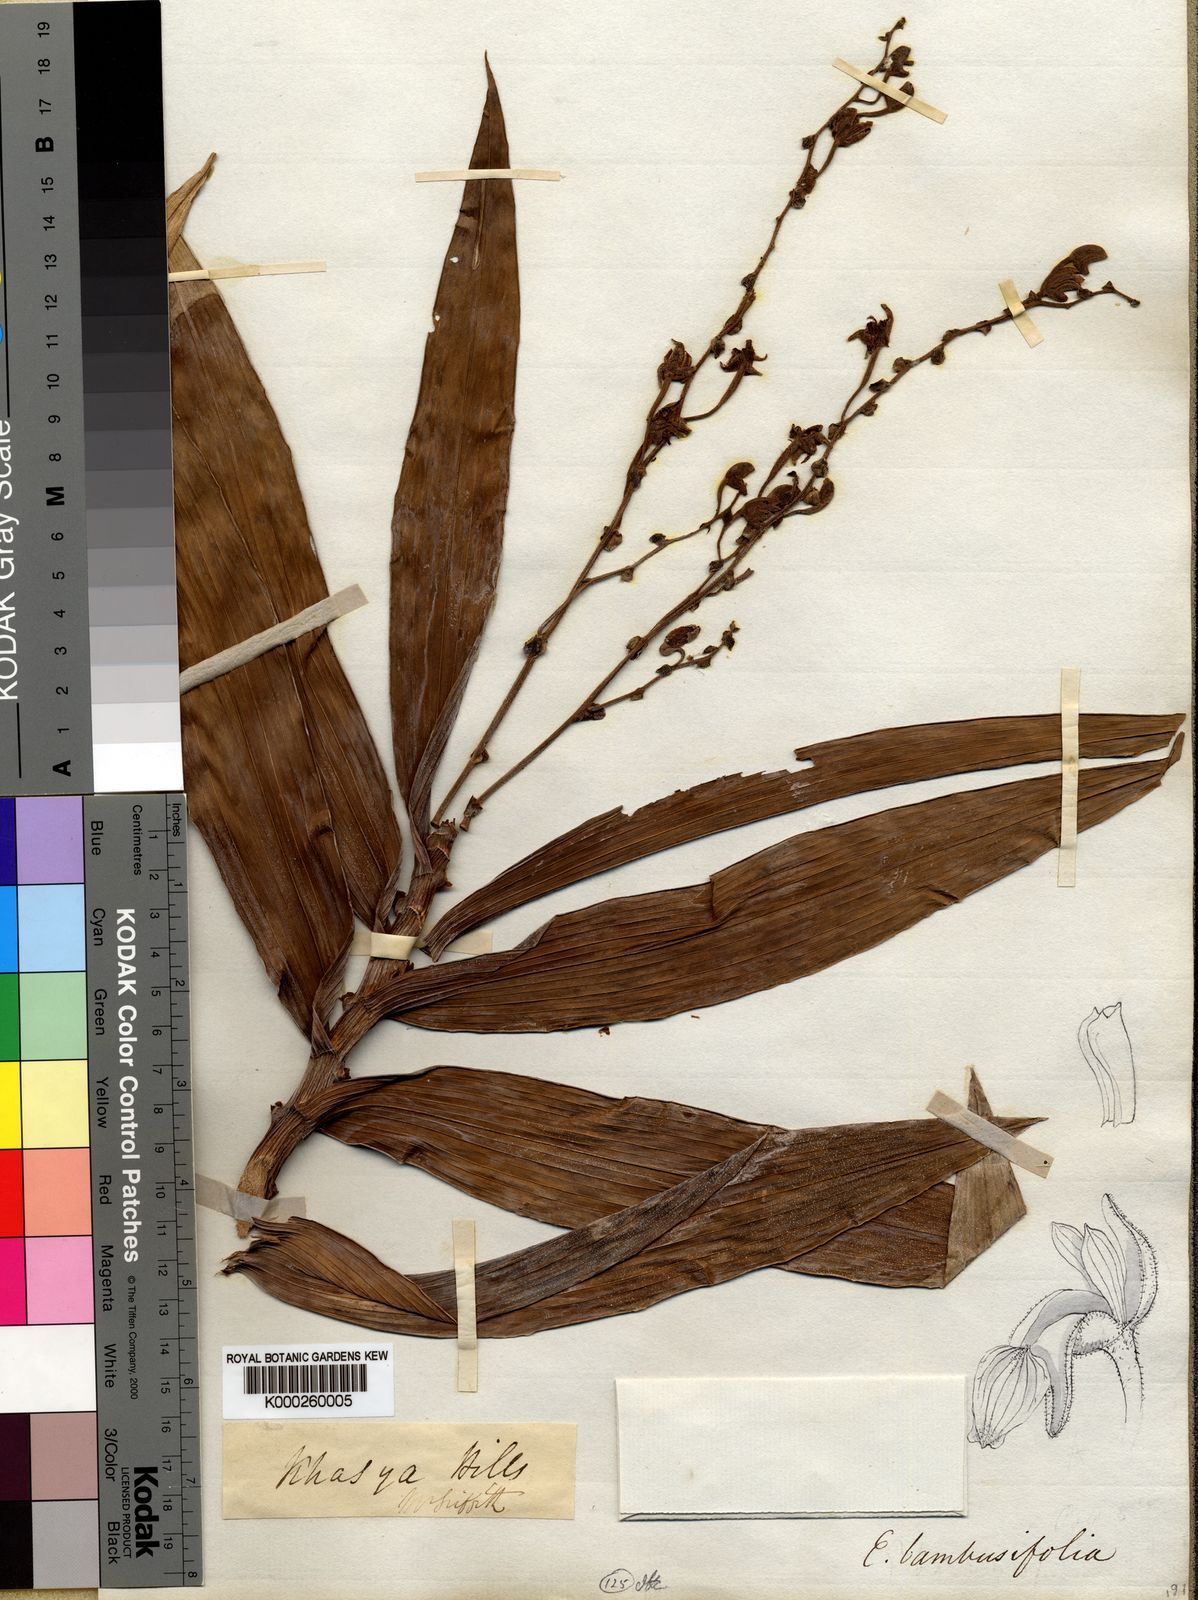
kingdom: Plantae
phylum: Tracheophyta
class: Liliopsida
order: Asparagales
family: Orchidaceae
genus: Bambuseria
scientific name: Bambuseria bambusifolia
